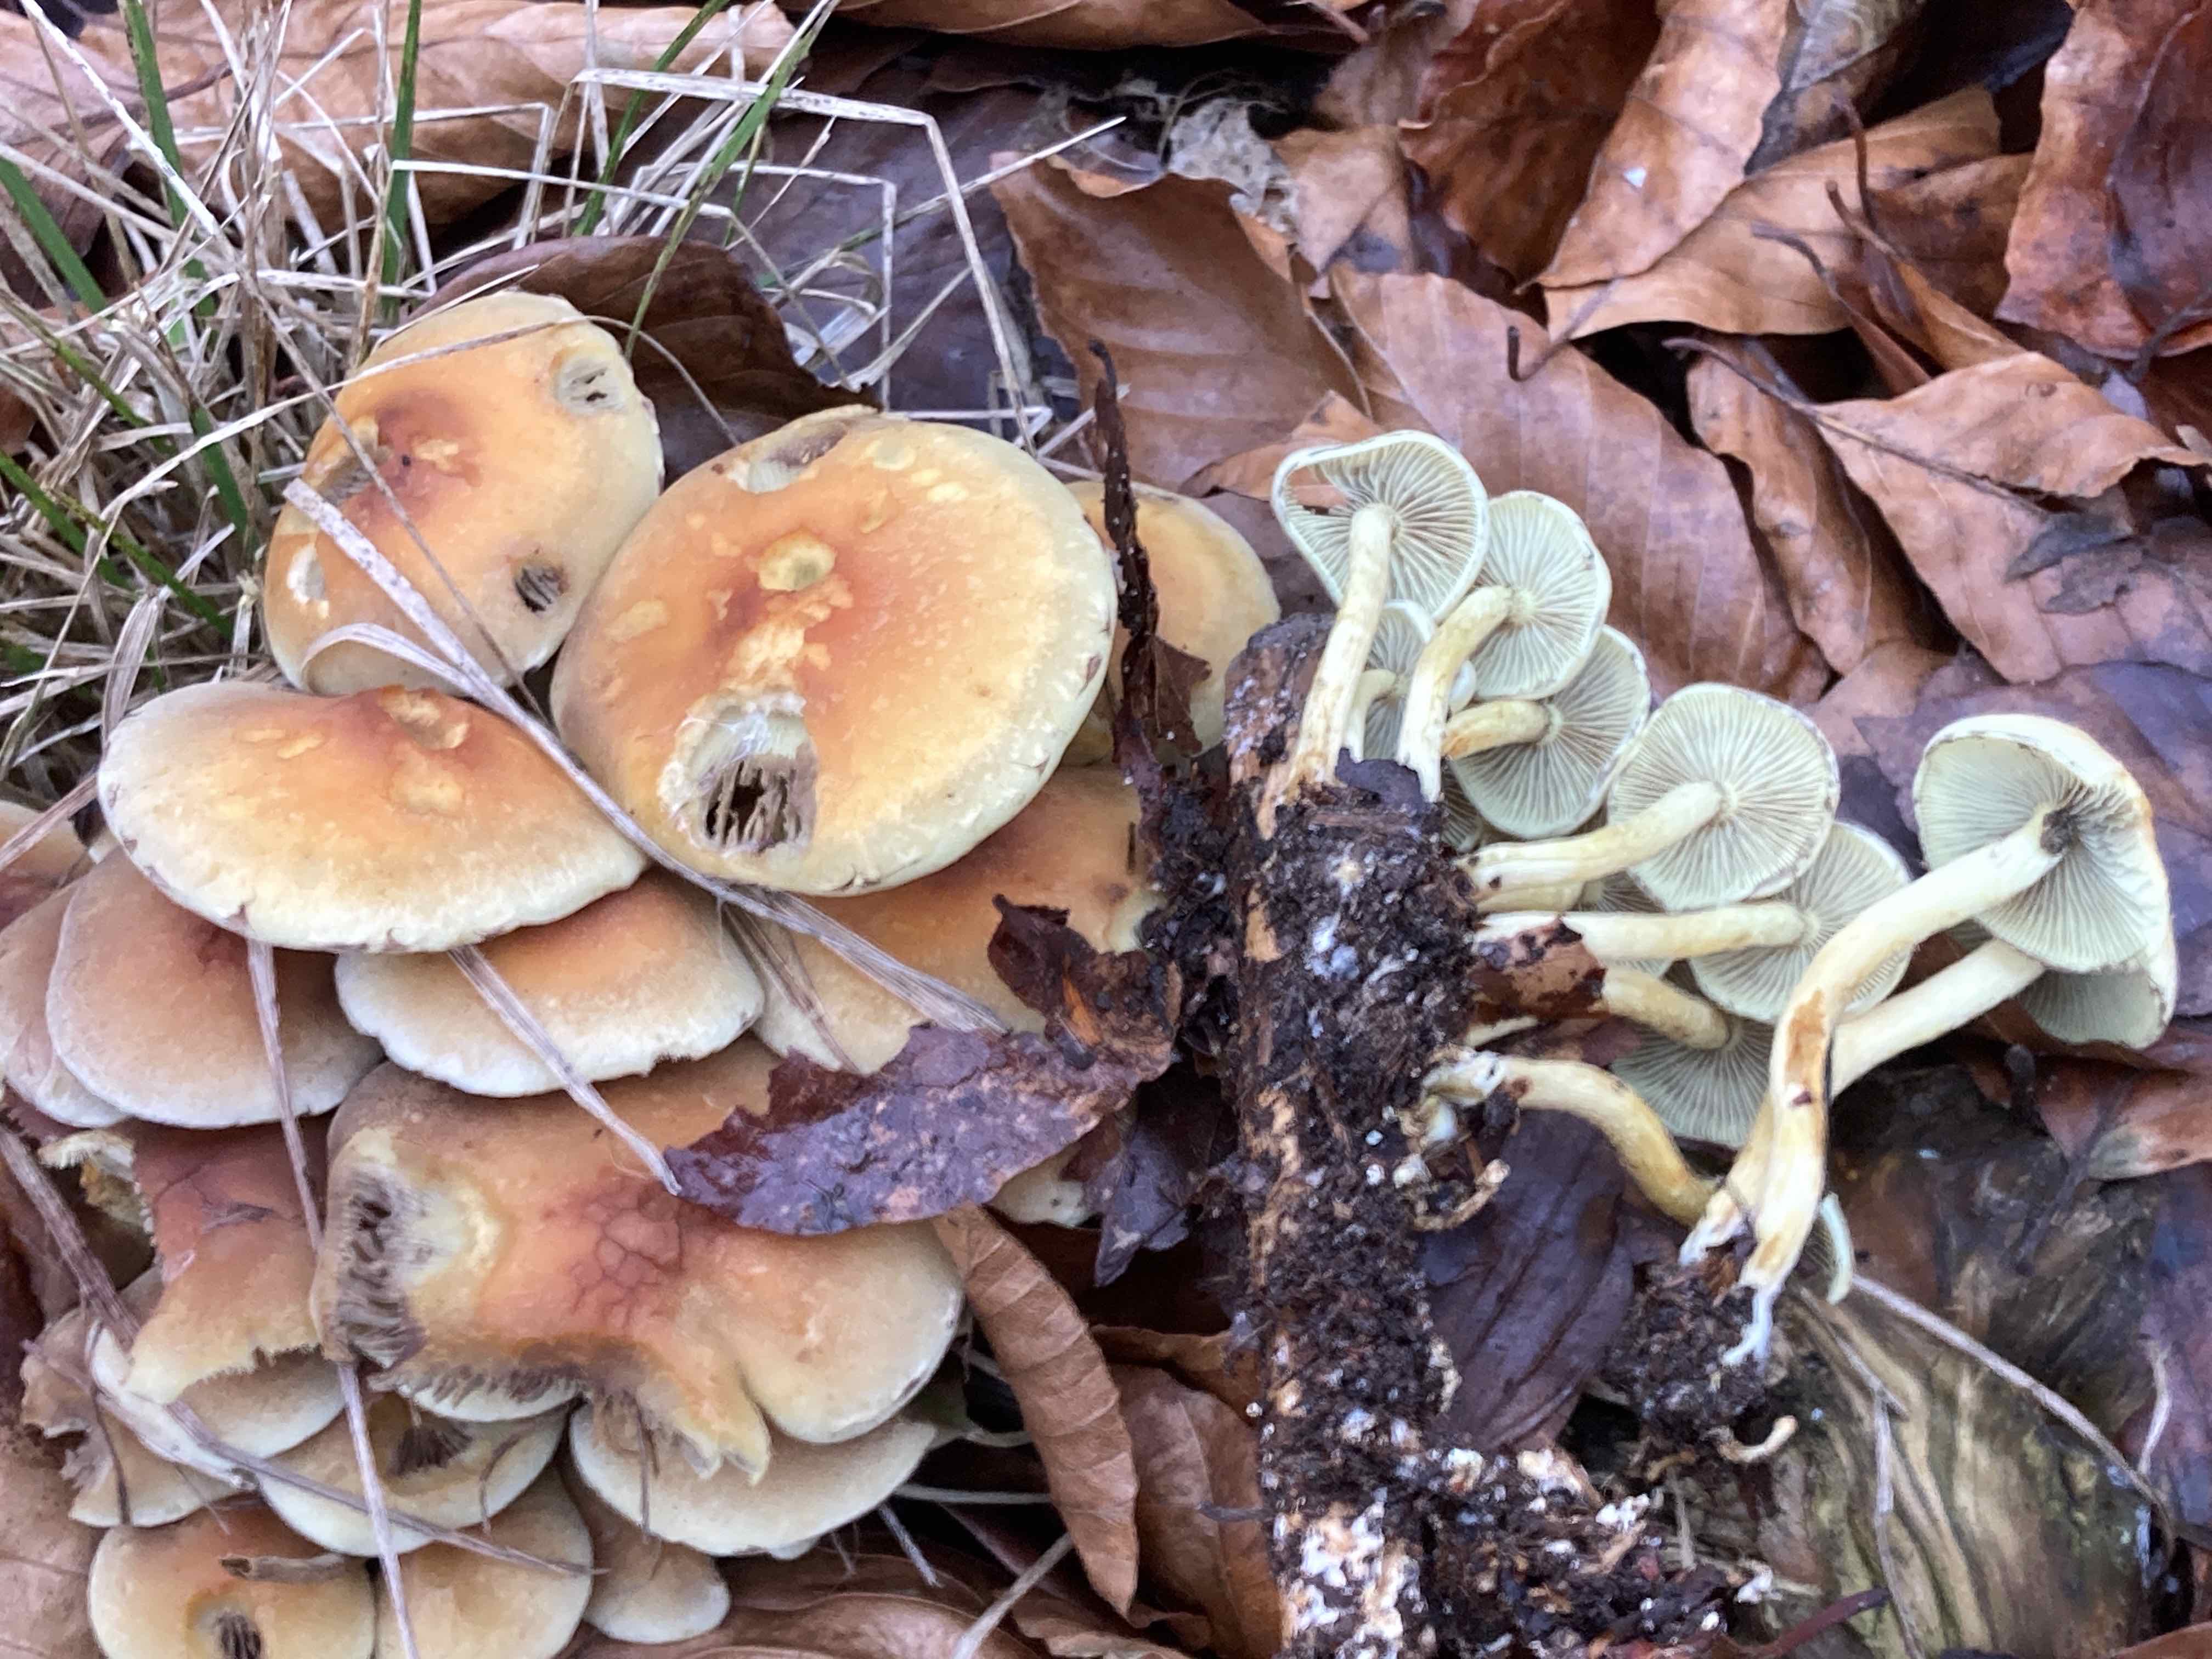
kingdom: Fungi
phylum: Basidiomycota
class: Agaricomycetes
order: Agaricales
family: Strophariaceae
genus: Hypholoma
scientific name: Hypholoma fasciculare
